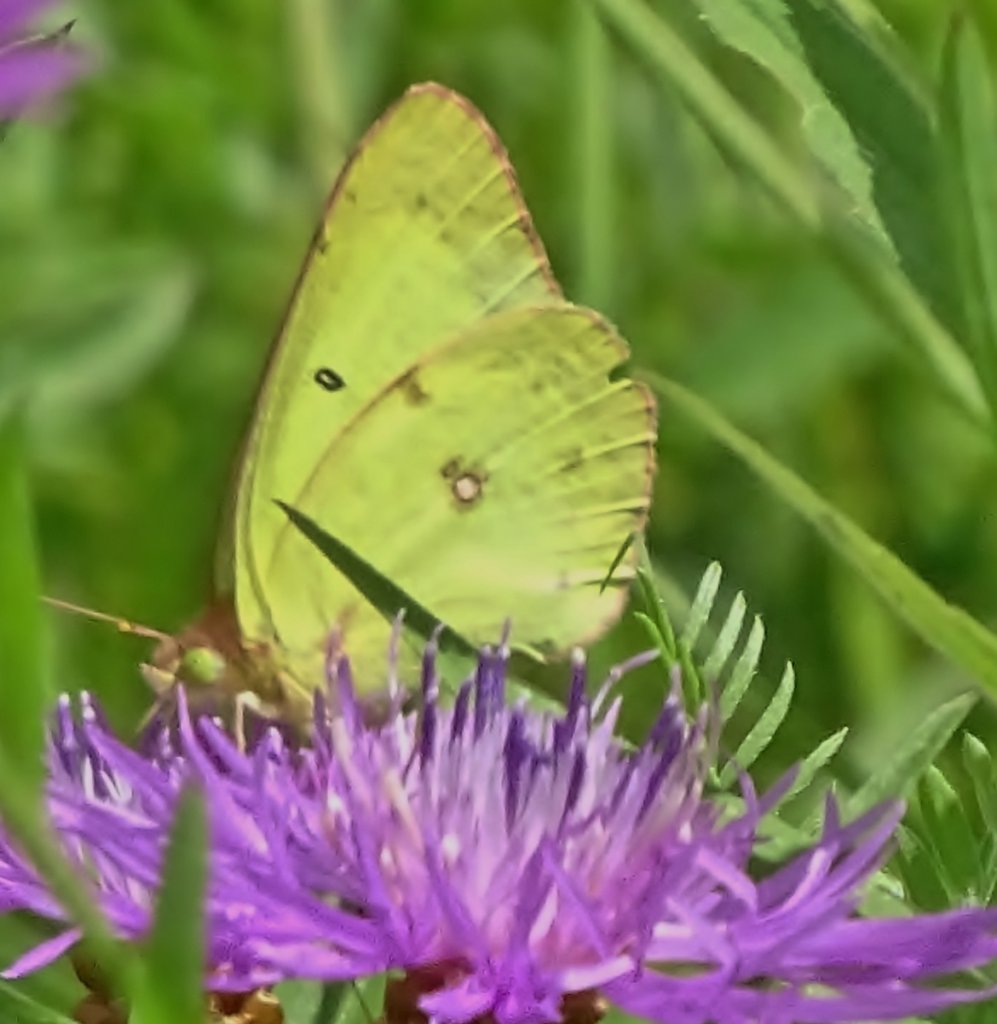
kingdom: Animalia
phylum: Arthropoda
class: Insecta
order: Lepidoptera
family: Pieridae
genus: Colias
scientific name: Colias philodice
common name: Clouded Sulphur
